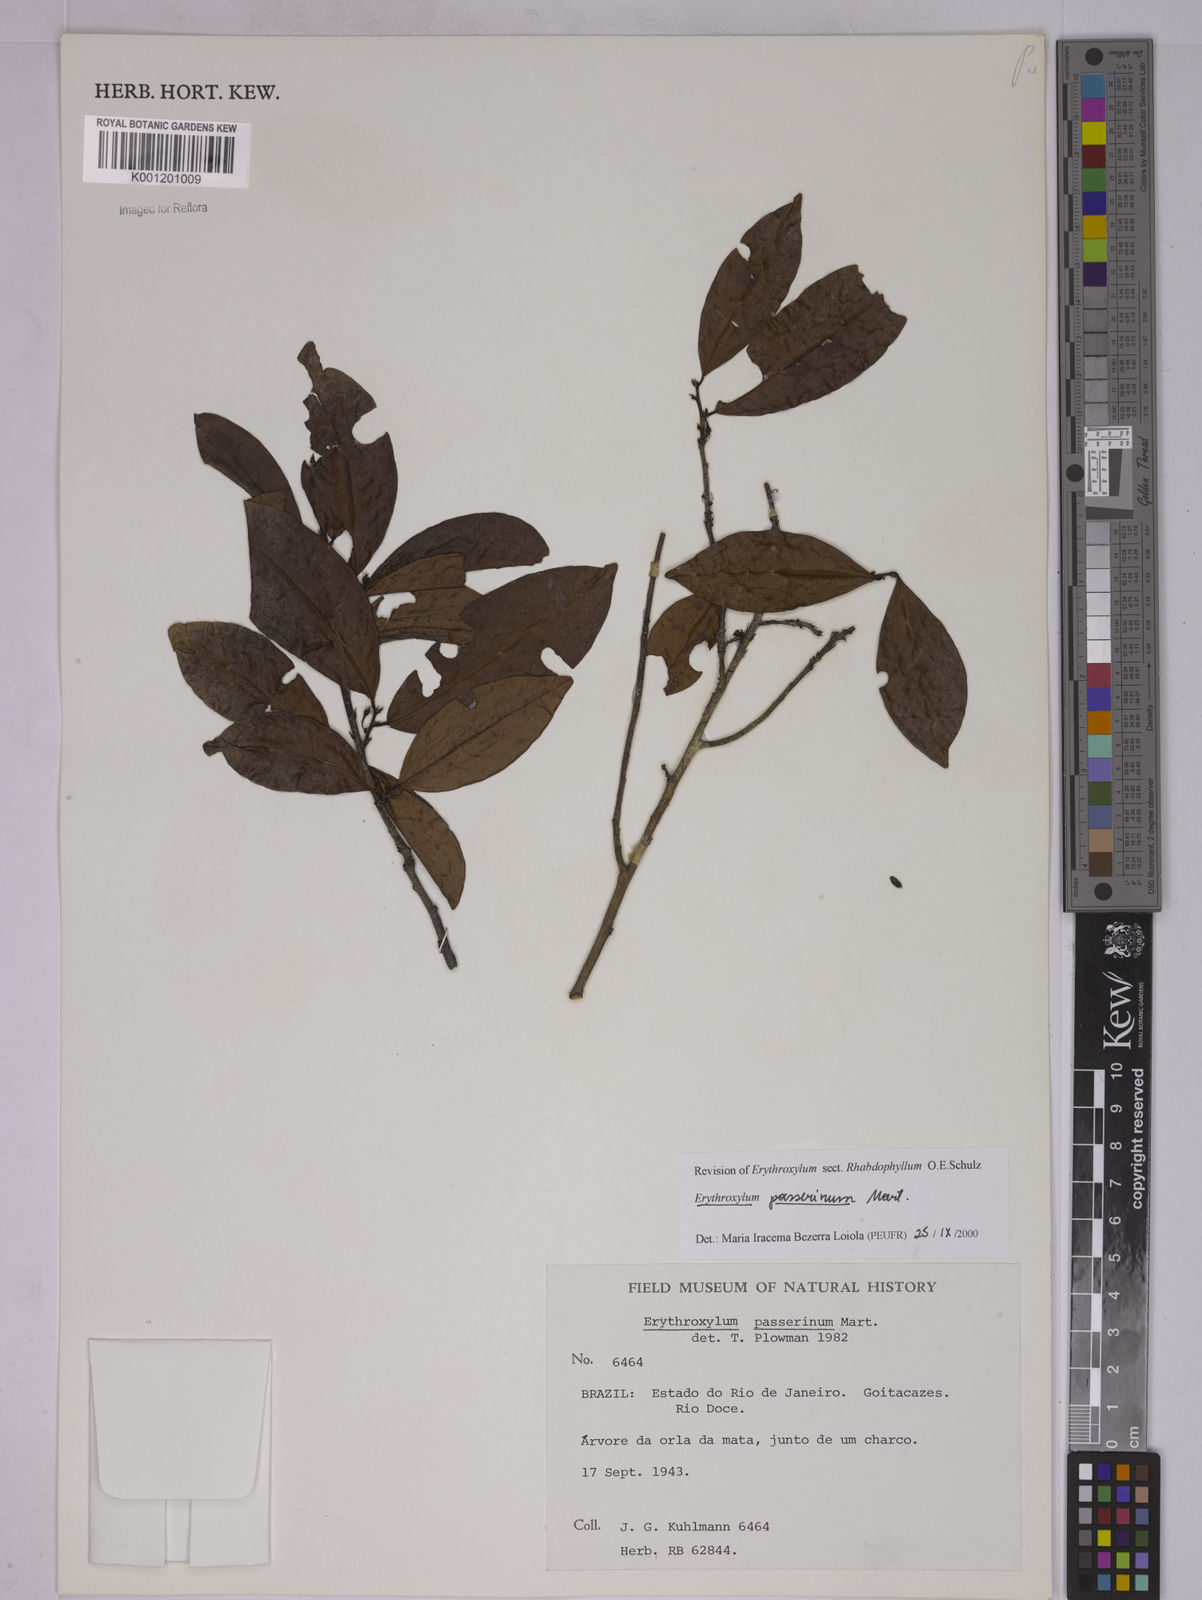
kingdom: Plantae
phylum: Tracheophyta
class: Magnoliopsida
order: Malpighiales
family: Erythroxylaceae
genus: Erythroxylum
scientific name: Erythroxylum passerinum
